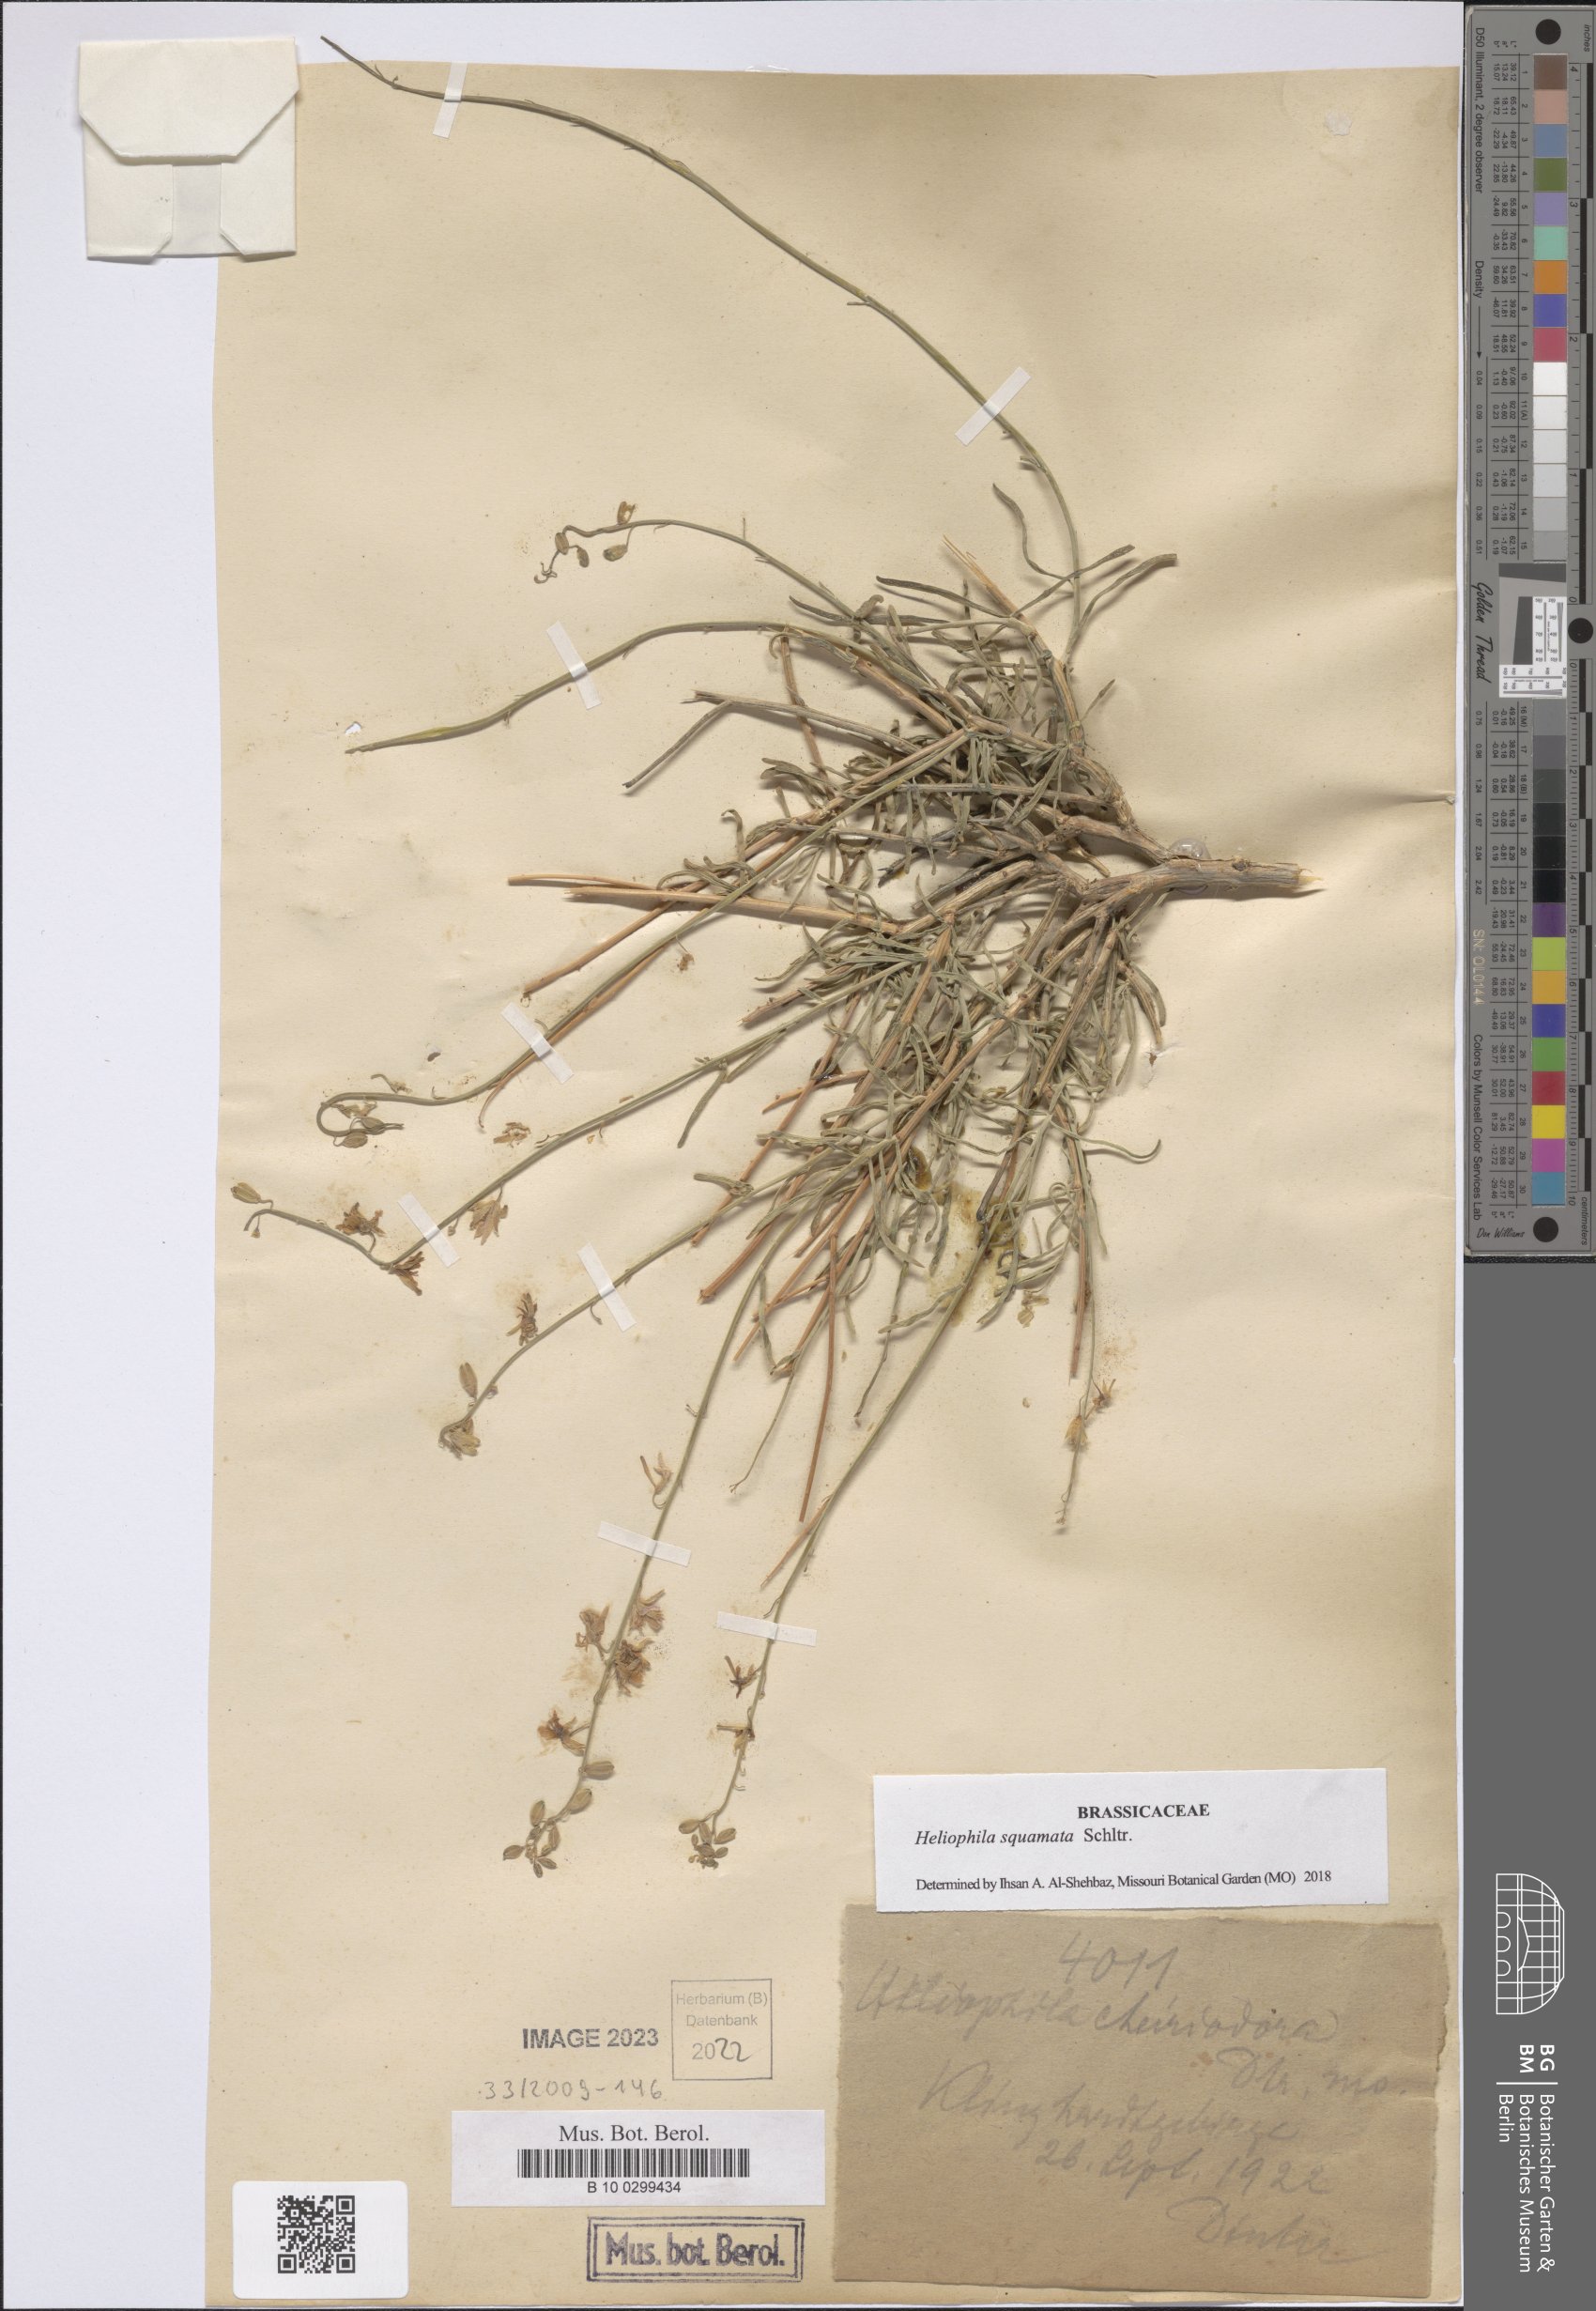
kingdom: Plantae
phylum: Tracheophyta
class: Magnoliopsida
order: Brassicales
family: Brassicaceae
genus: Heliophila
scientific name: Heliophila cornuta
